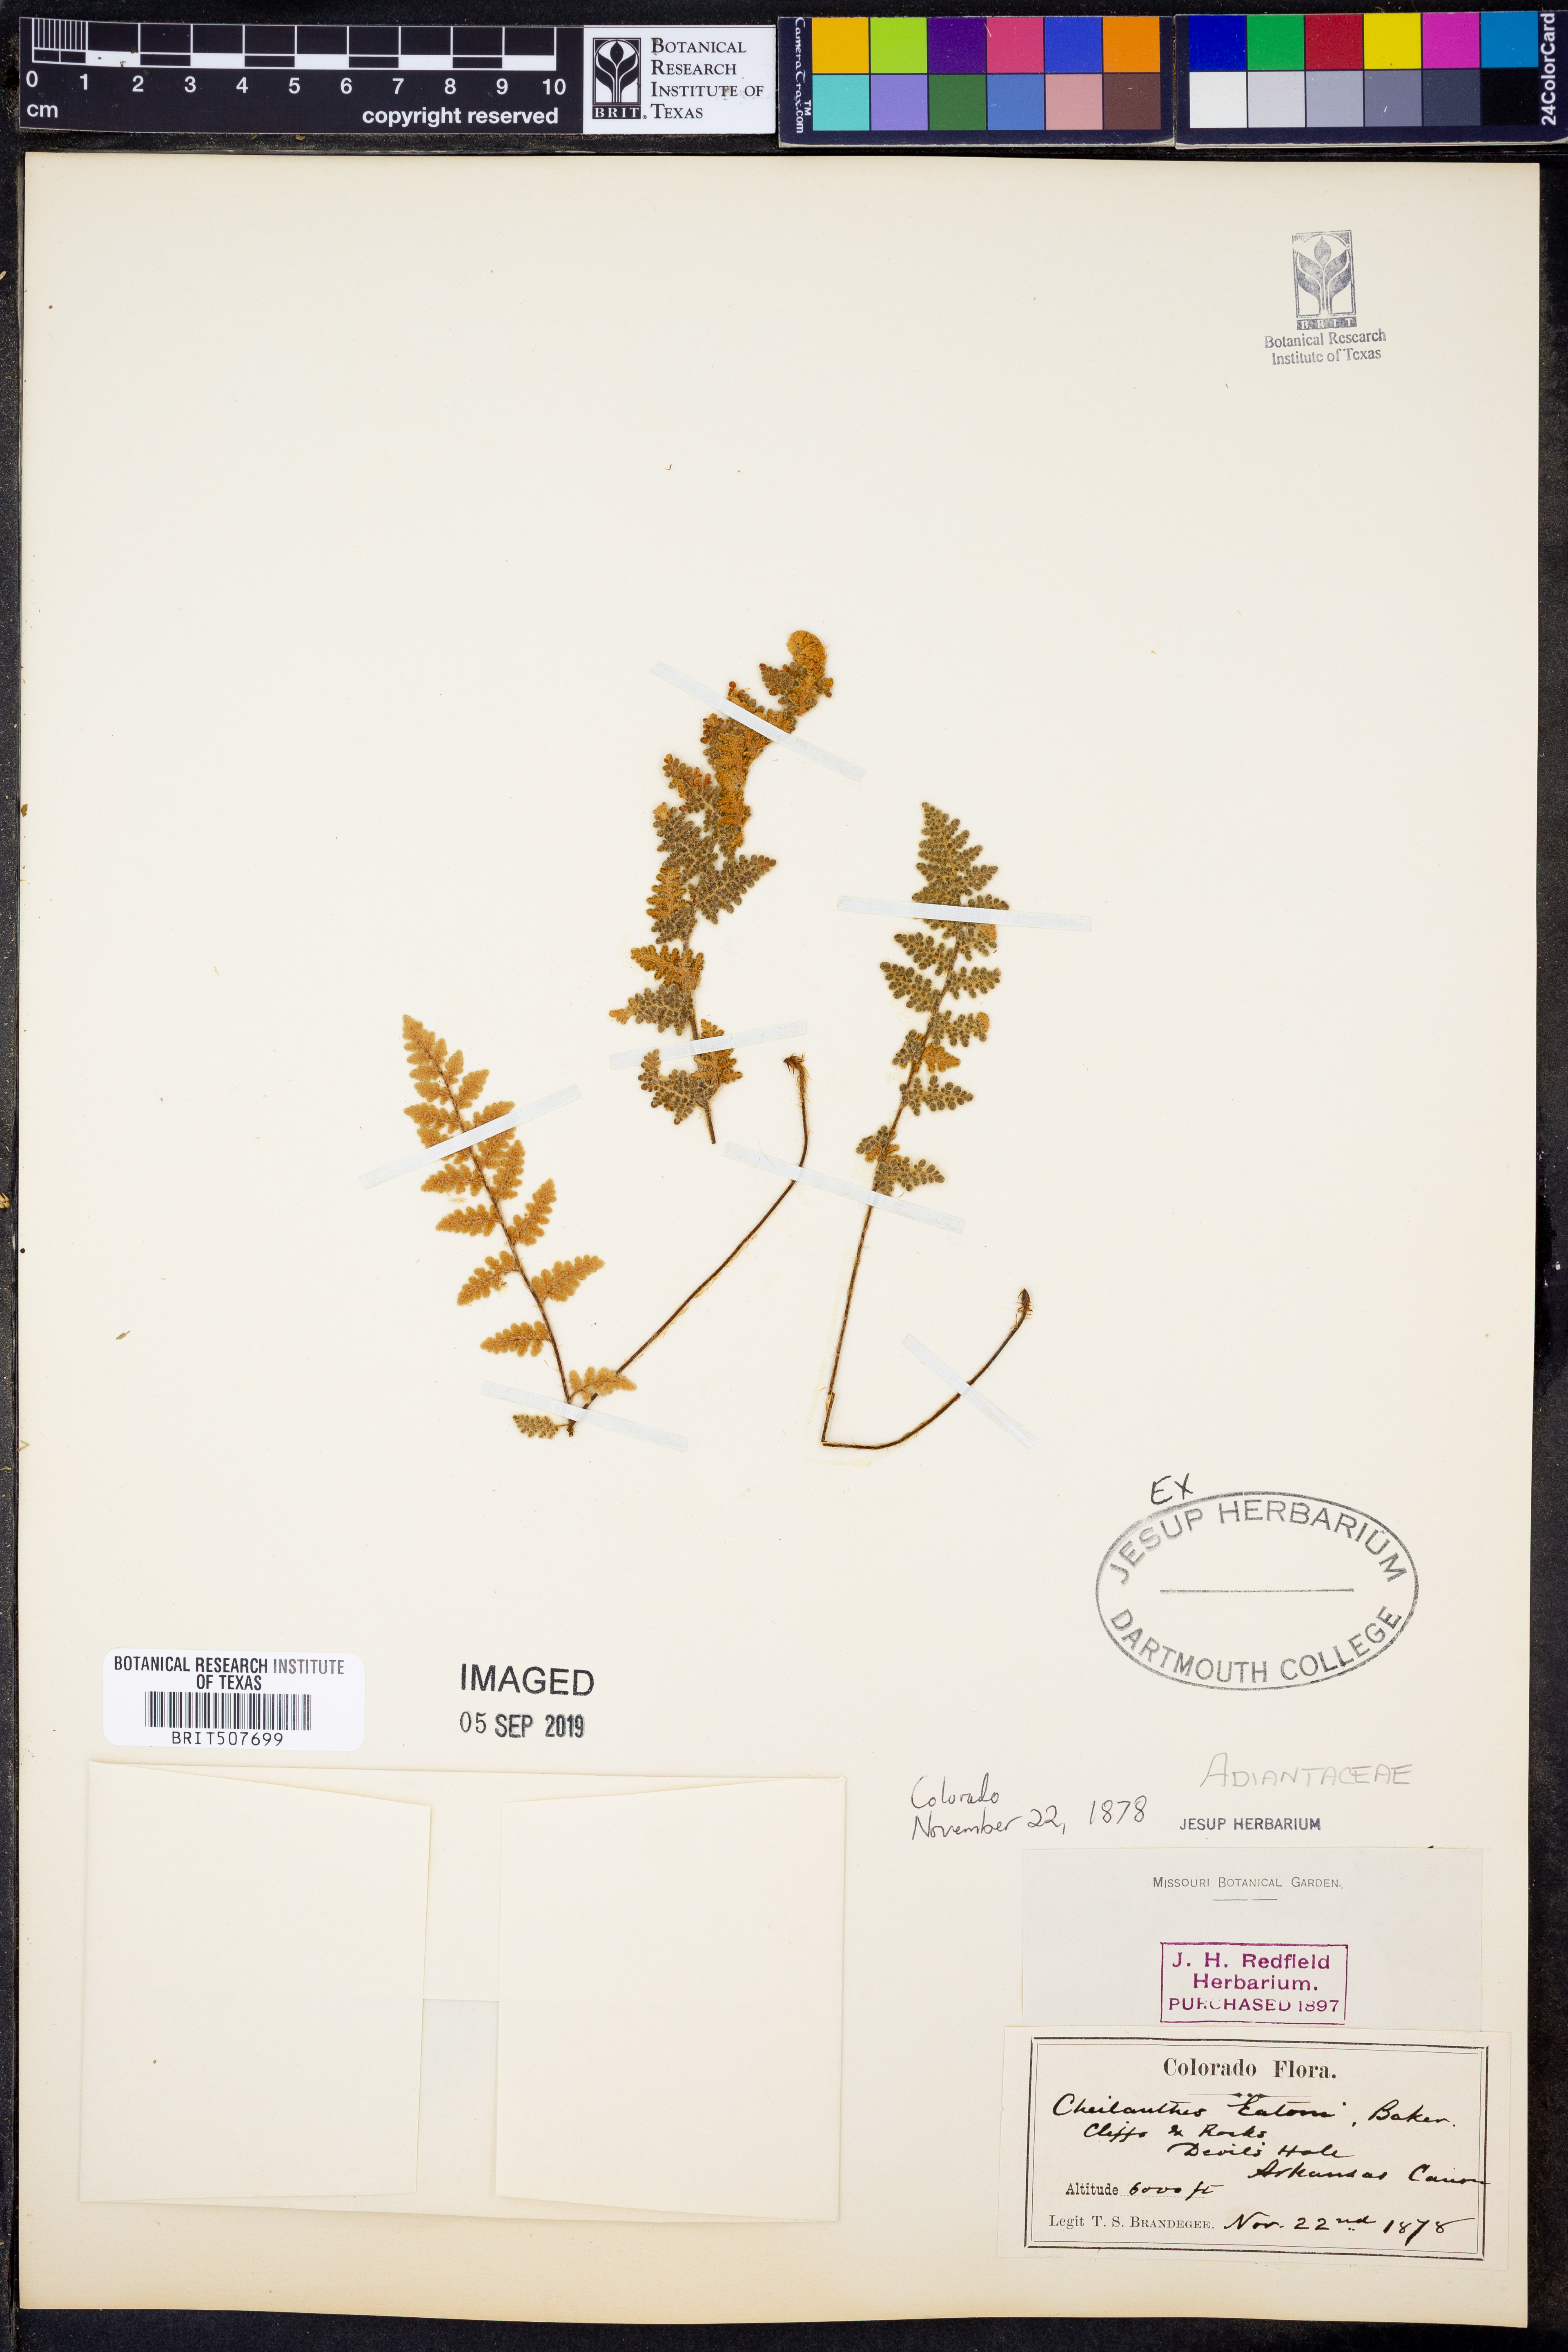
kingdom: Plantae
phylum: Tracheophyta
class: Polypodiopsida
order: Polypodiales
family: Pteridaceae
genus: Myriopteris
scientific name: Myriopteris rufa
